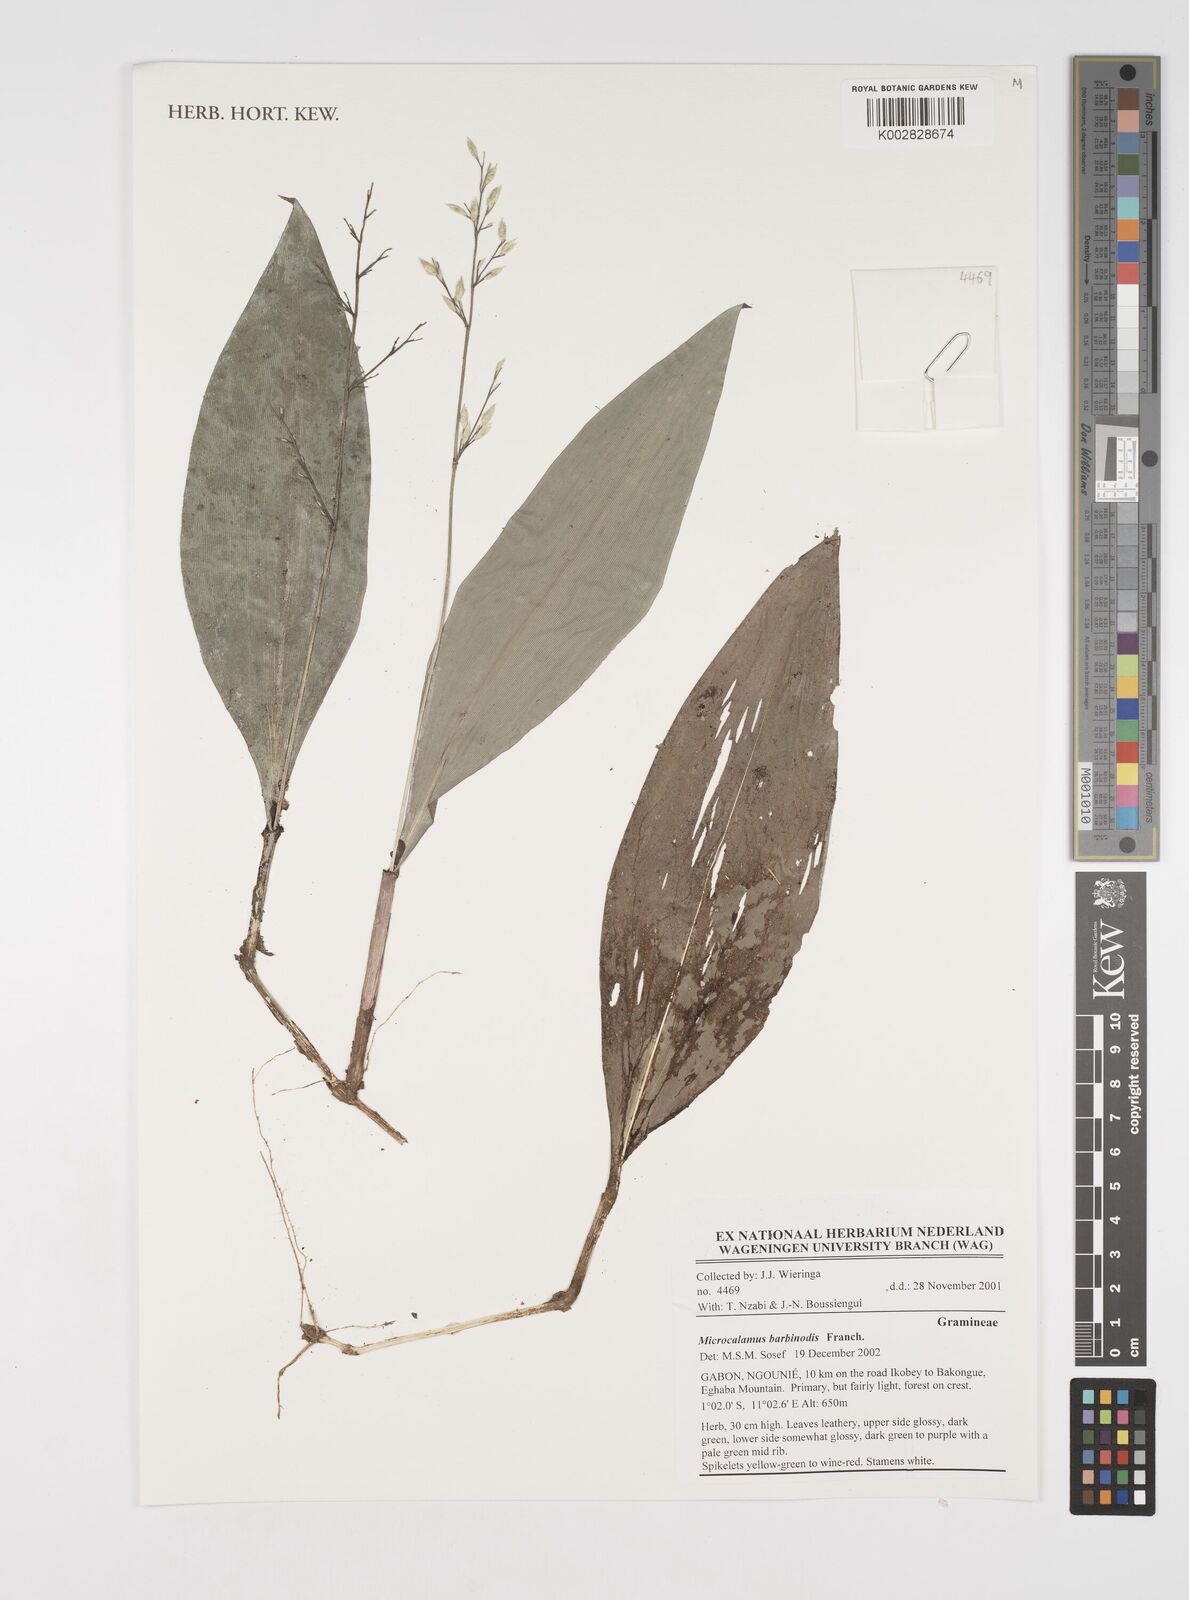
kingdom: Plantae
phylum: Tracheophyta
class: Liliopsida
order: Poales
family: Poaceae
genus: Microcalamus
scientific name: Microcalamus barbinodis
